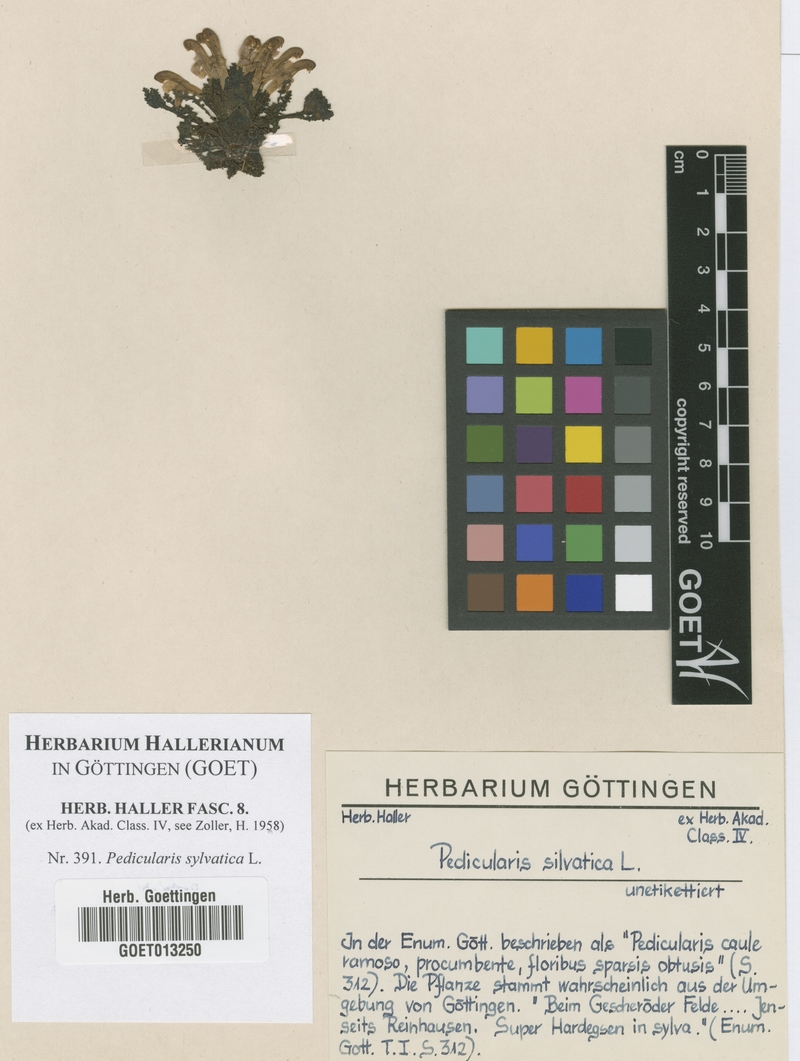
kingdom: Plantae
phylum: Tracheophyta
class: Magnoliopsida
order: Lamiales
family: Orobanchaceae
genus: Pedicularis
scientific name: Pedicularis sylvatica
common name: Lousewort
